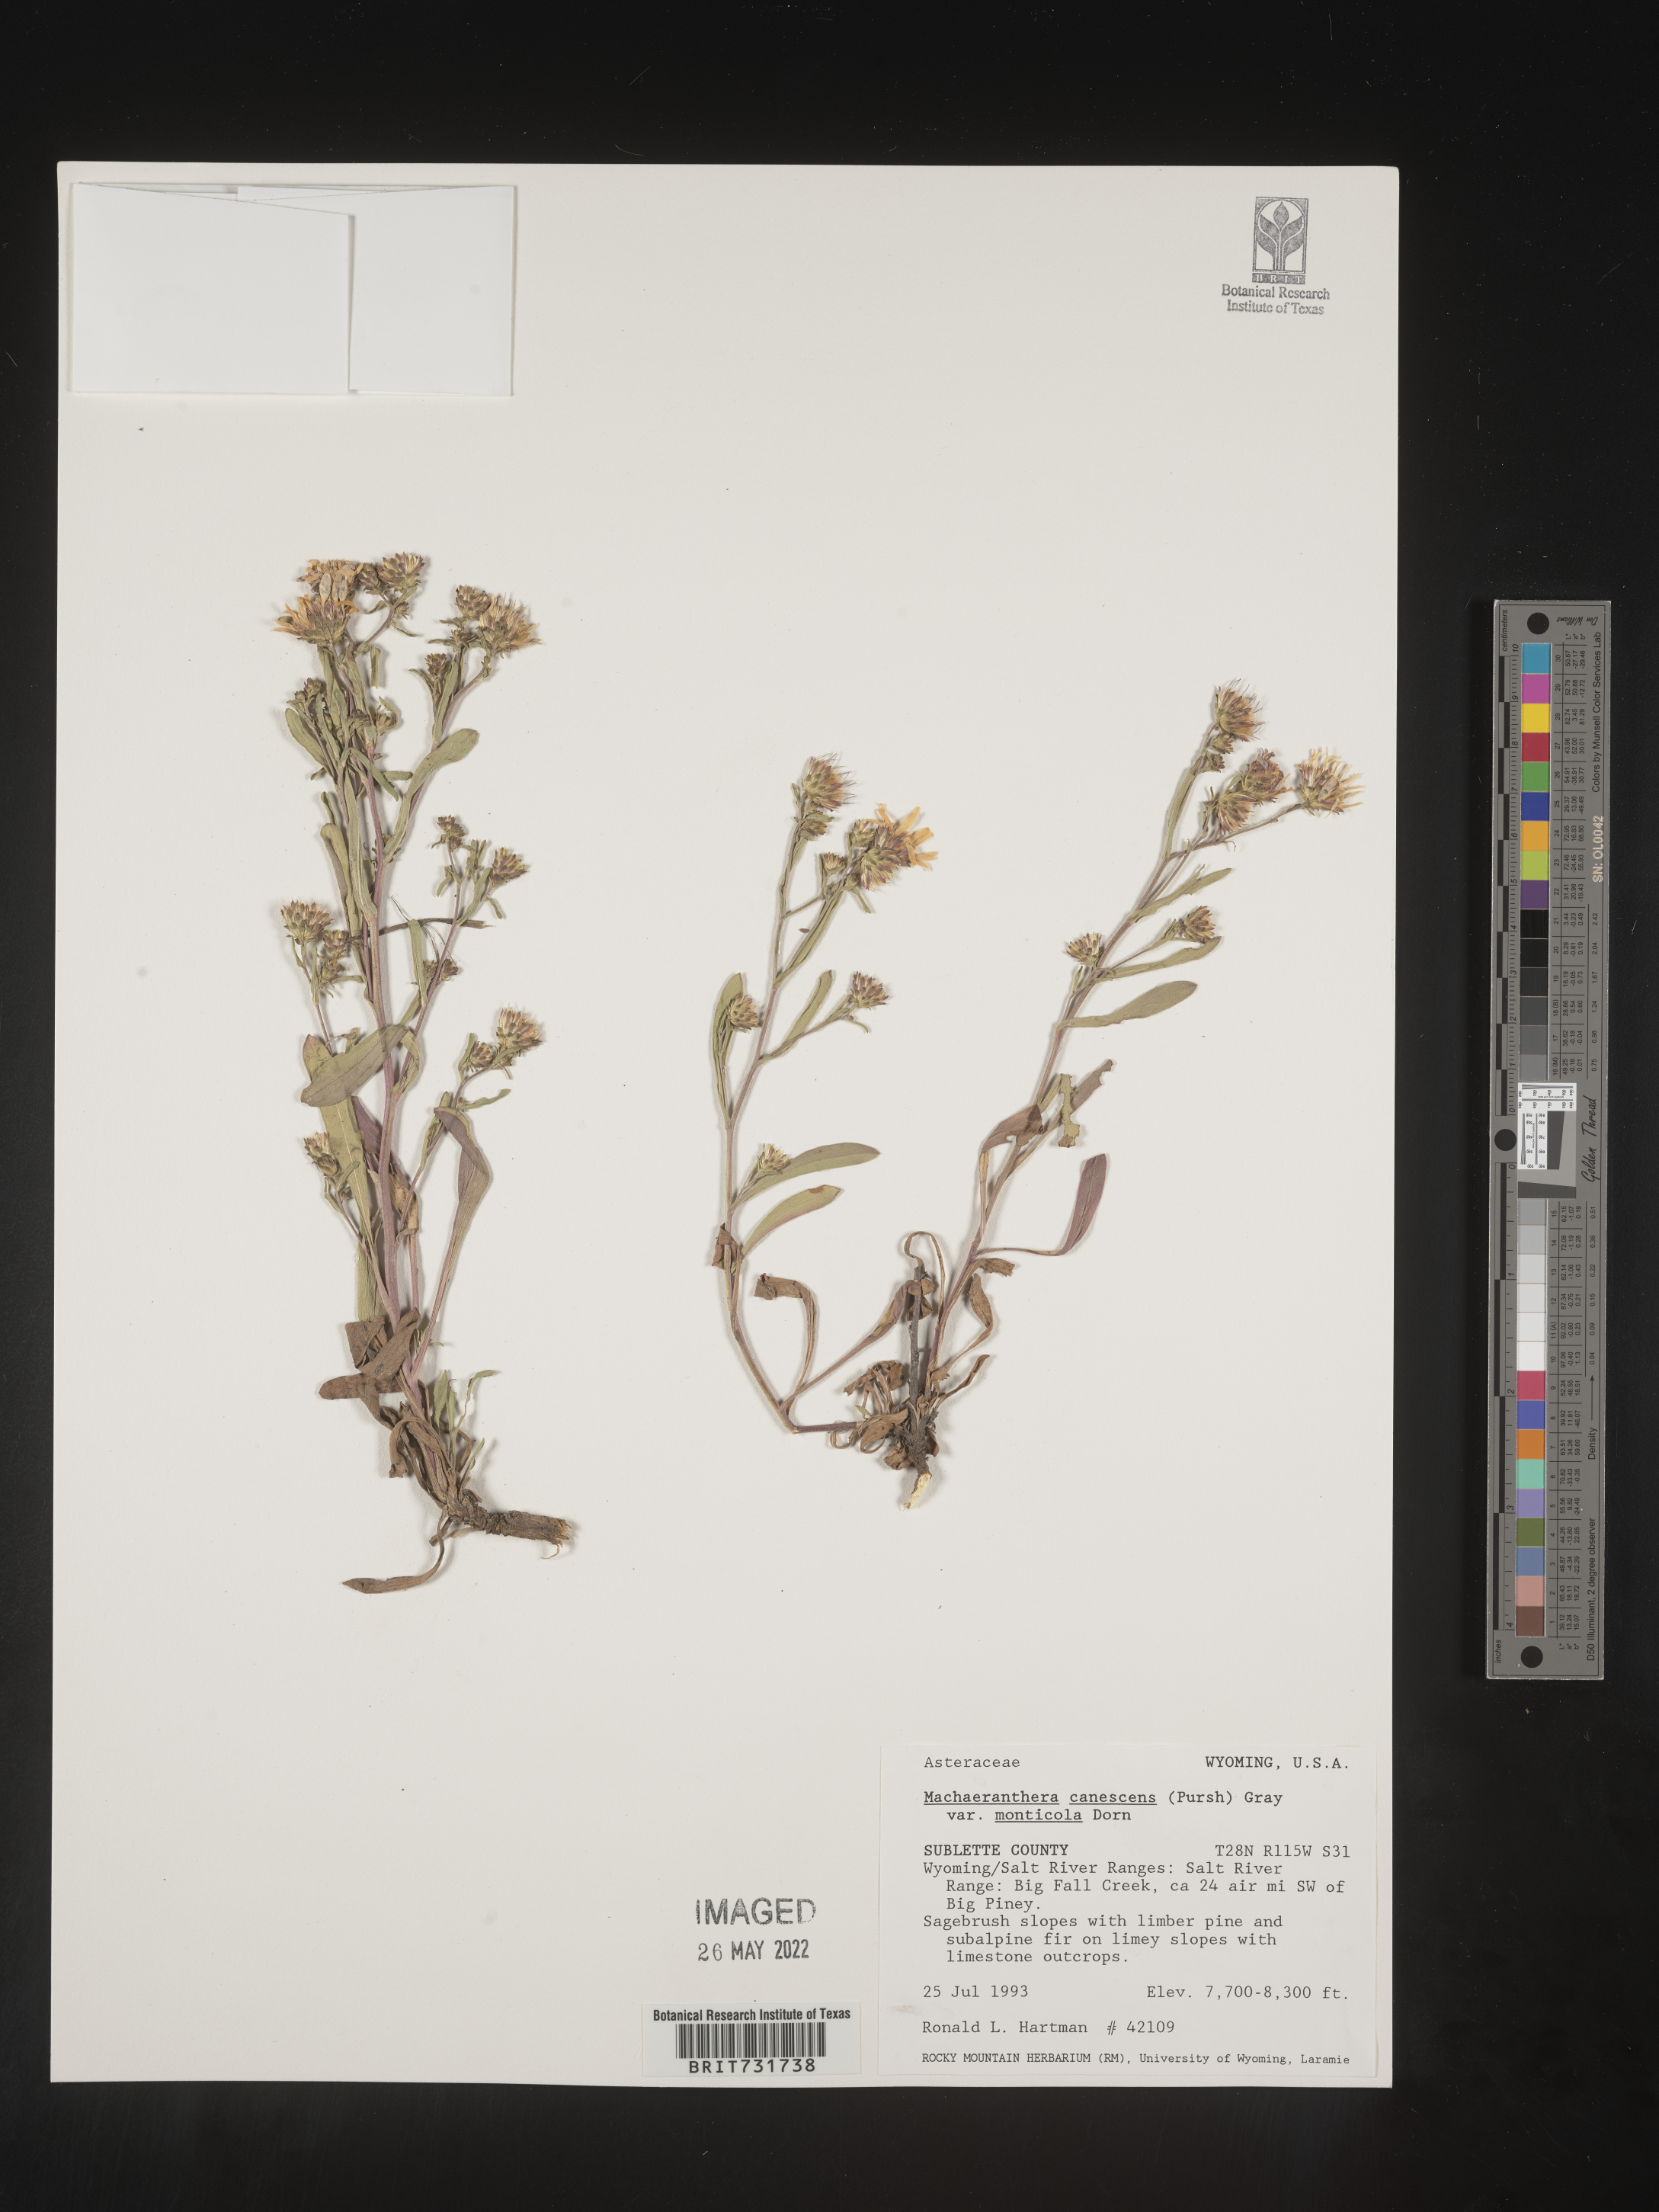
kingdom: Plantae
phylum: Tracheophyta
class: Magnoliopsida
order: Asterales
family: Asteraceae
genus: Dieteria
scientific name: Dieteria canescens
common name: Hoary-aster
